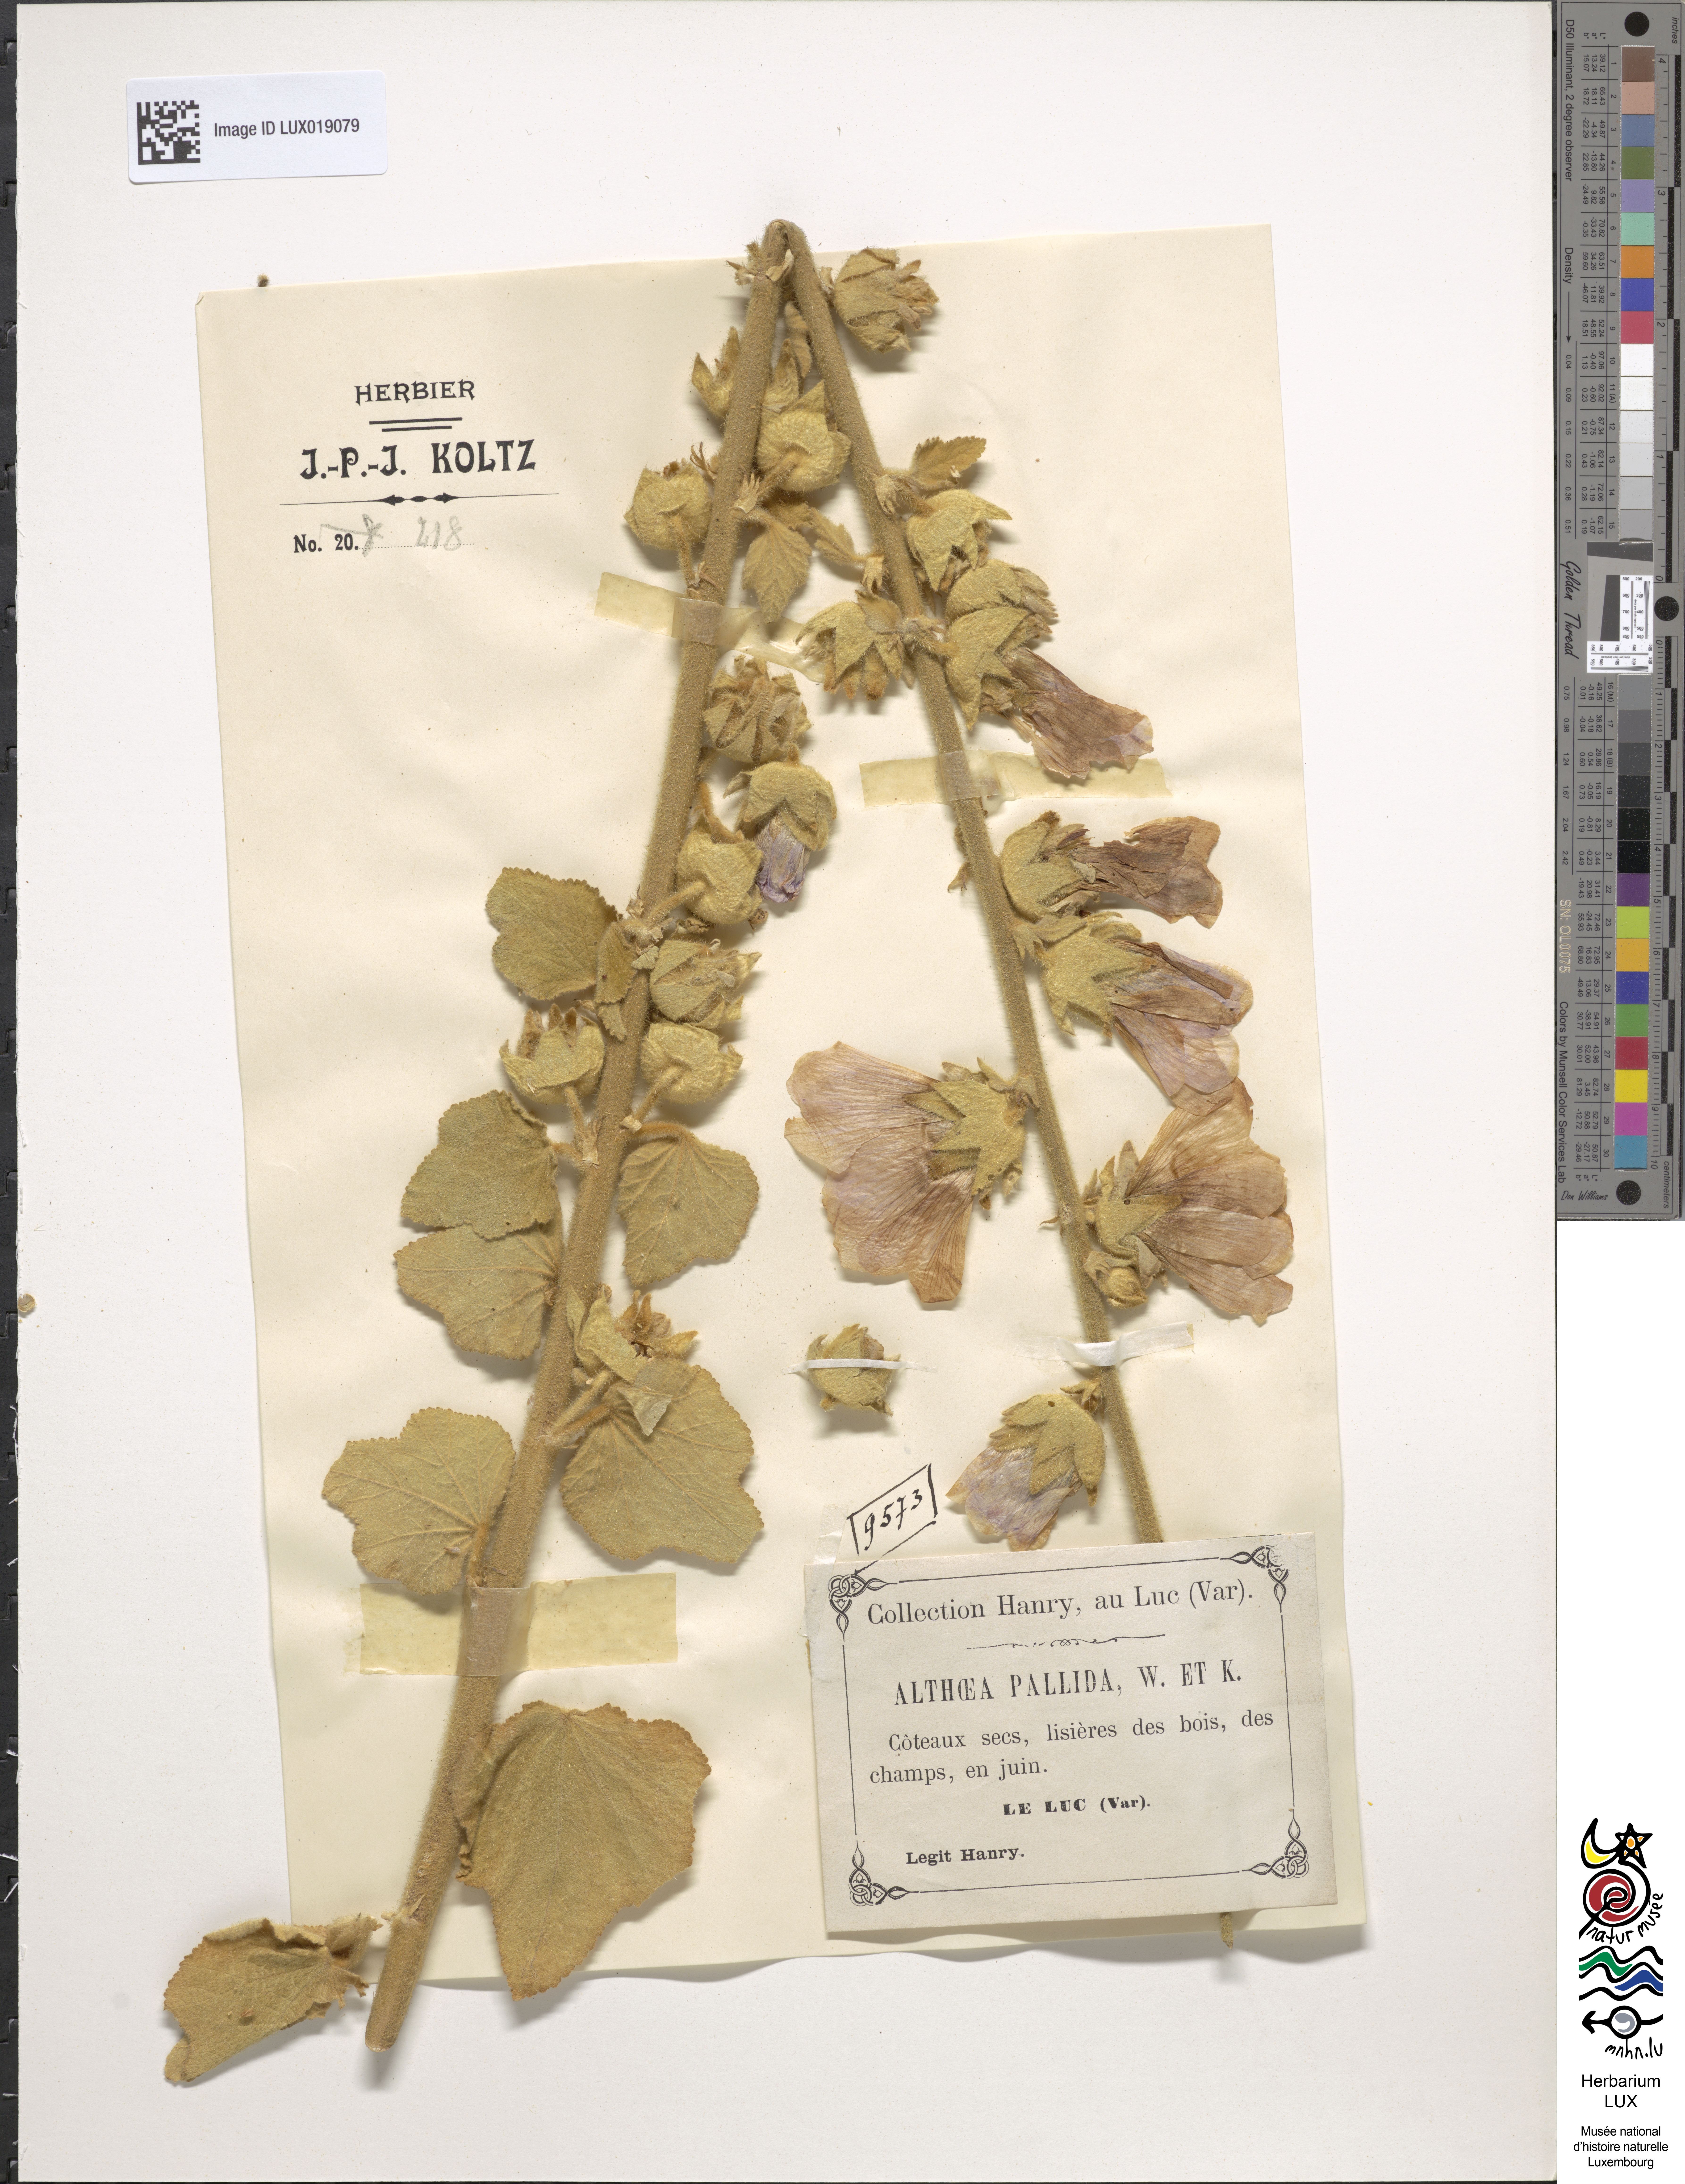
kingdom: Plantae
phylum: Tracheophyta
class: Magnoliopsida
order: Malvales
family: Malvaceae
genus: Alcea
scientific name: Alcea pallida
